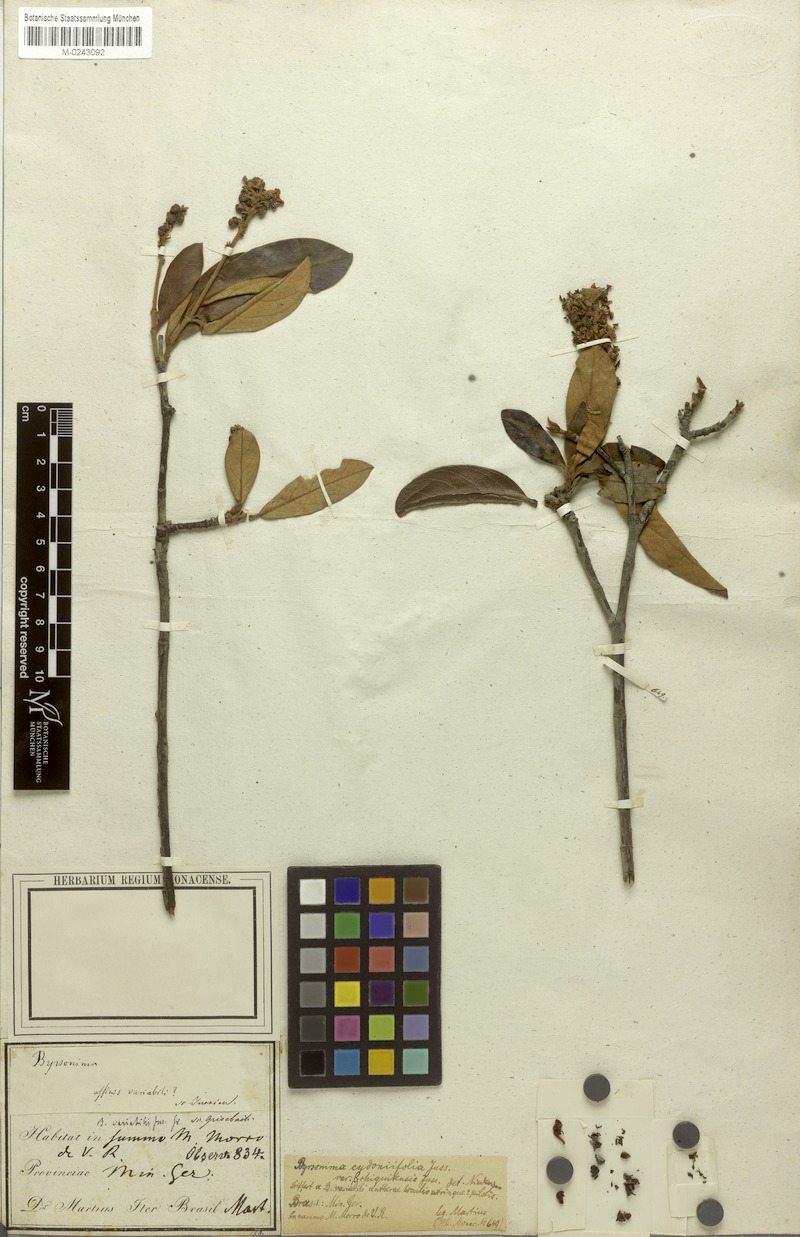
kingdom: Plantae
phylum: Tracheophyta
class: Magnoliopsida
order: Malpighiales
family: Malpighiaceae
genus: Byrsonima
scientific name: Byrsonima cydoniifolia
